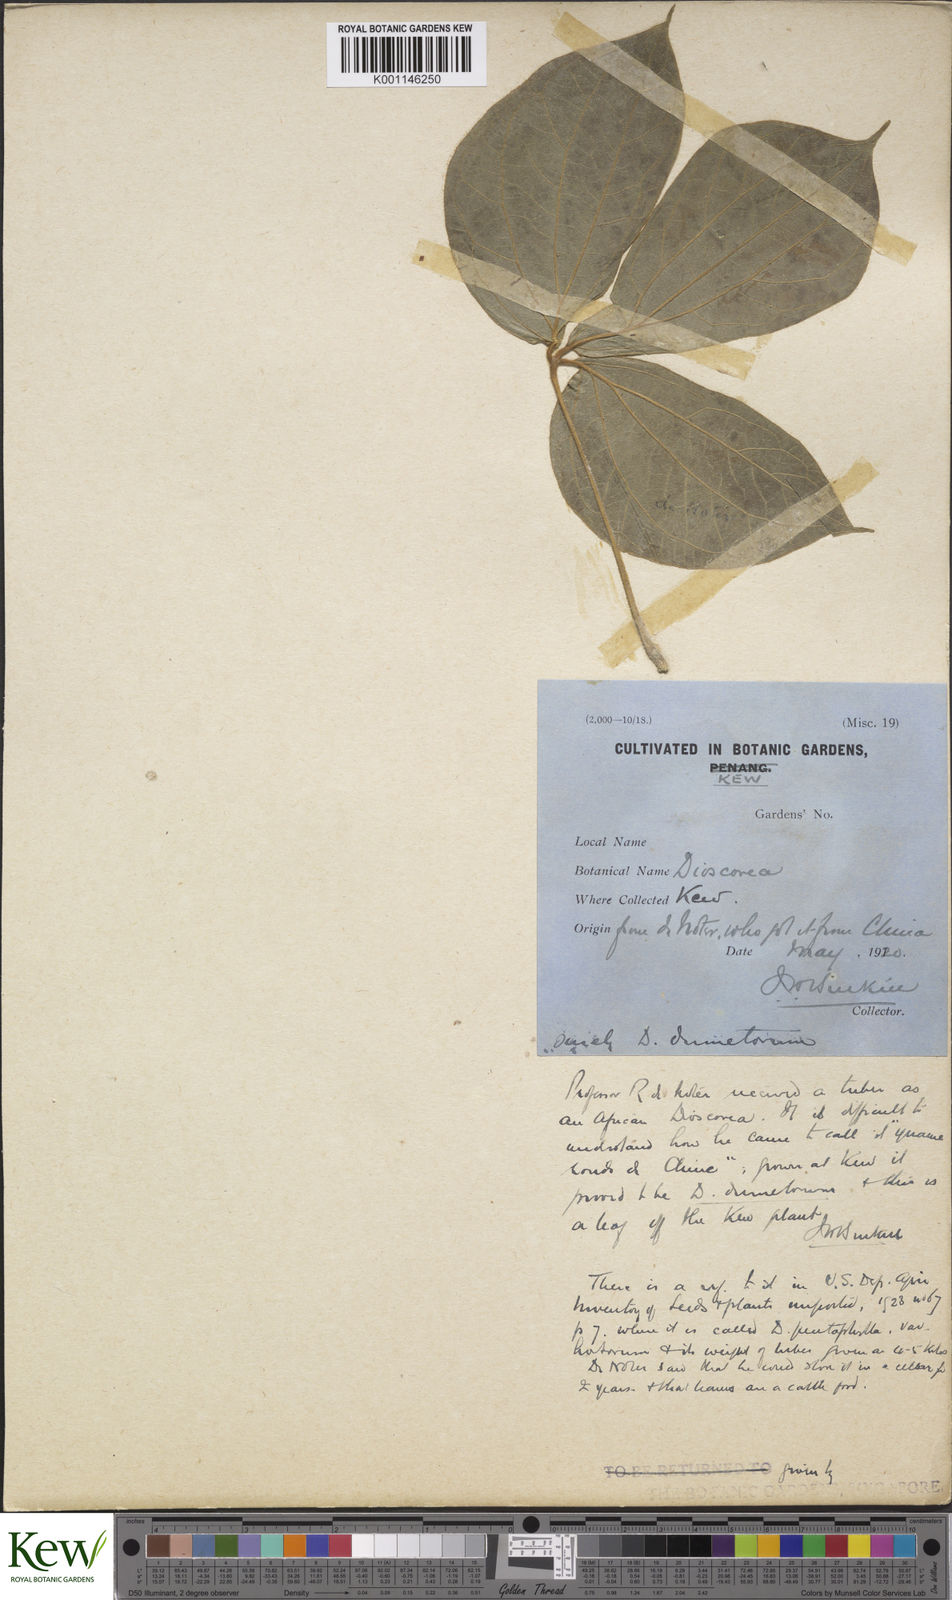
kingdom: Plantae
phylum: Tracheophyta
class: Liliopsida
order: Dioscoreales
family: Dioscoreaceae
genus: Dioscorea
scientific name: Dioscorea dumetorum
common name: African bitter yam
